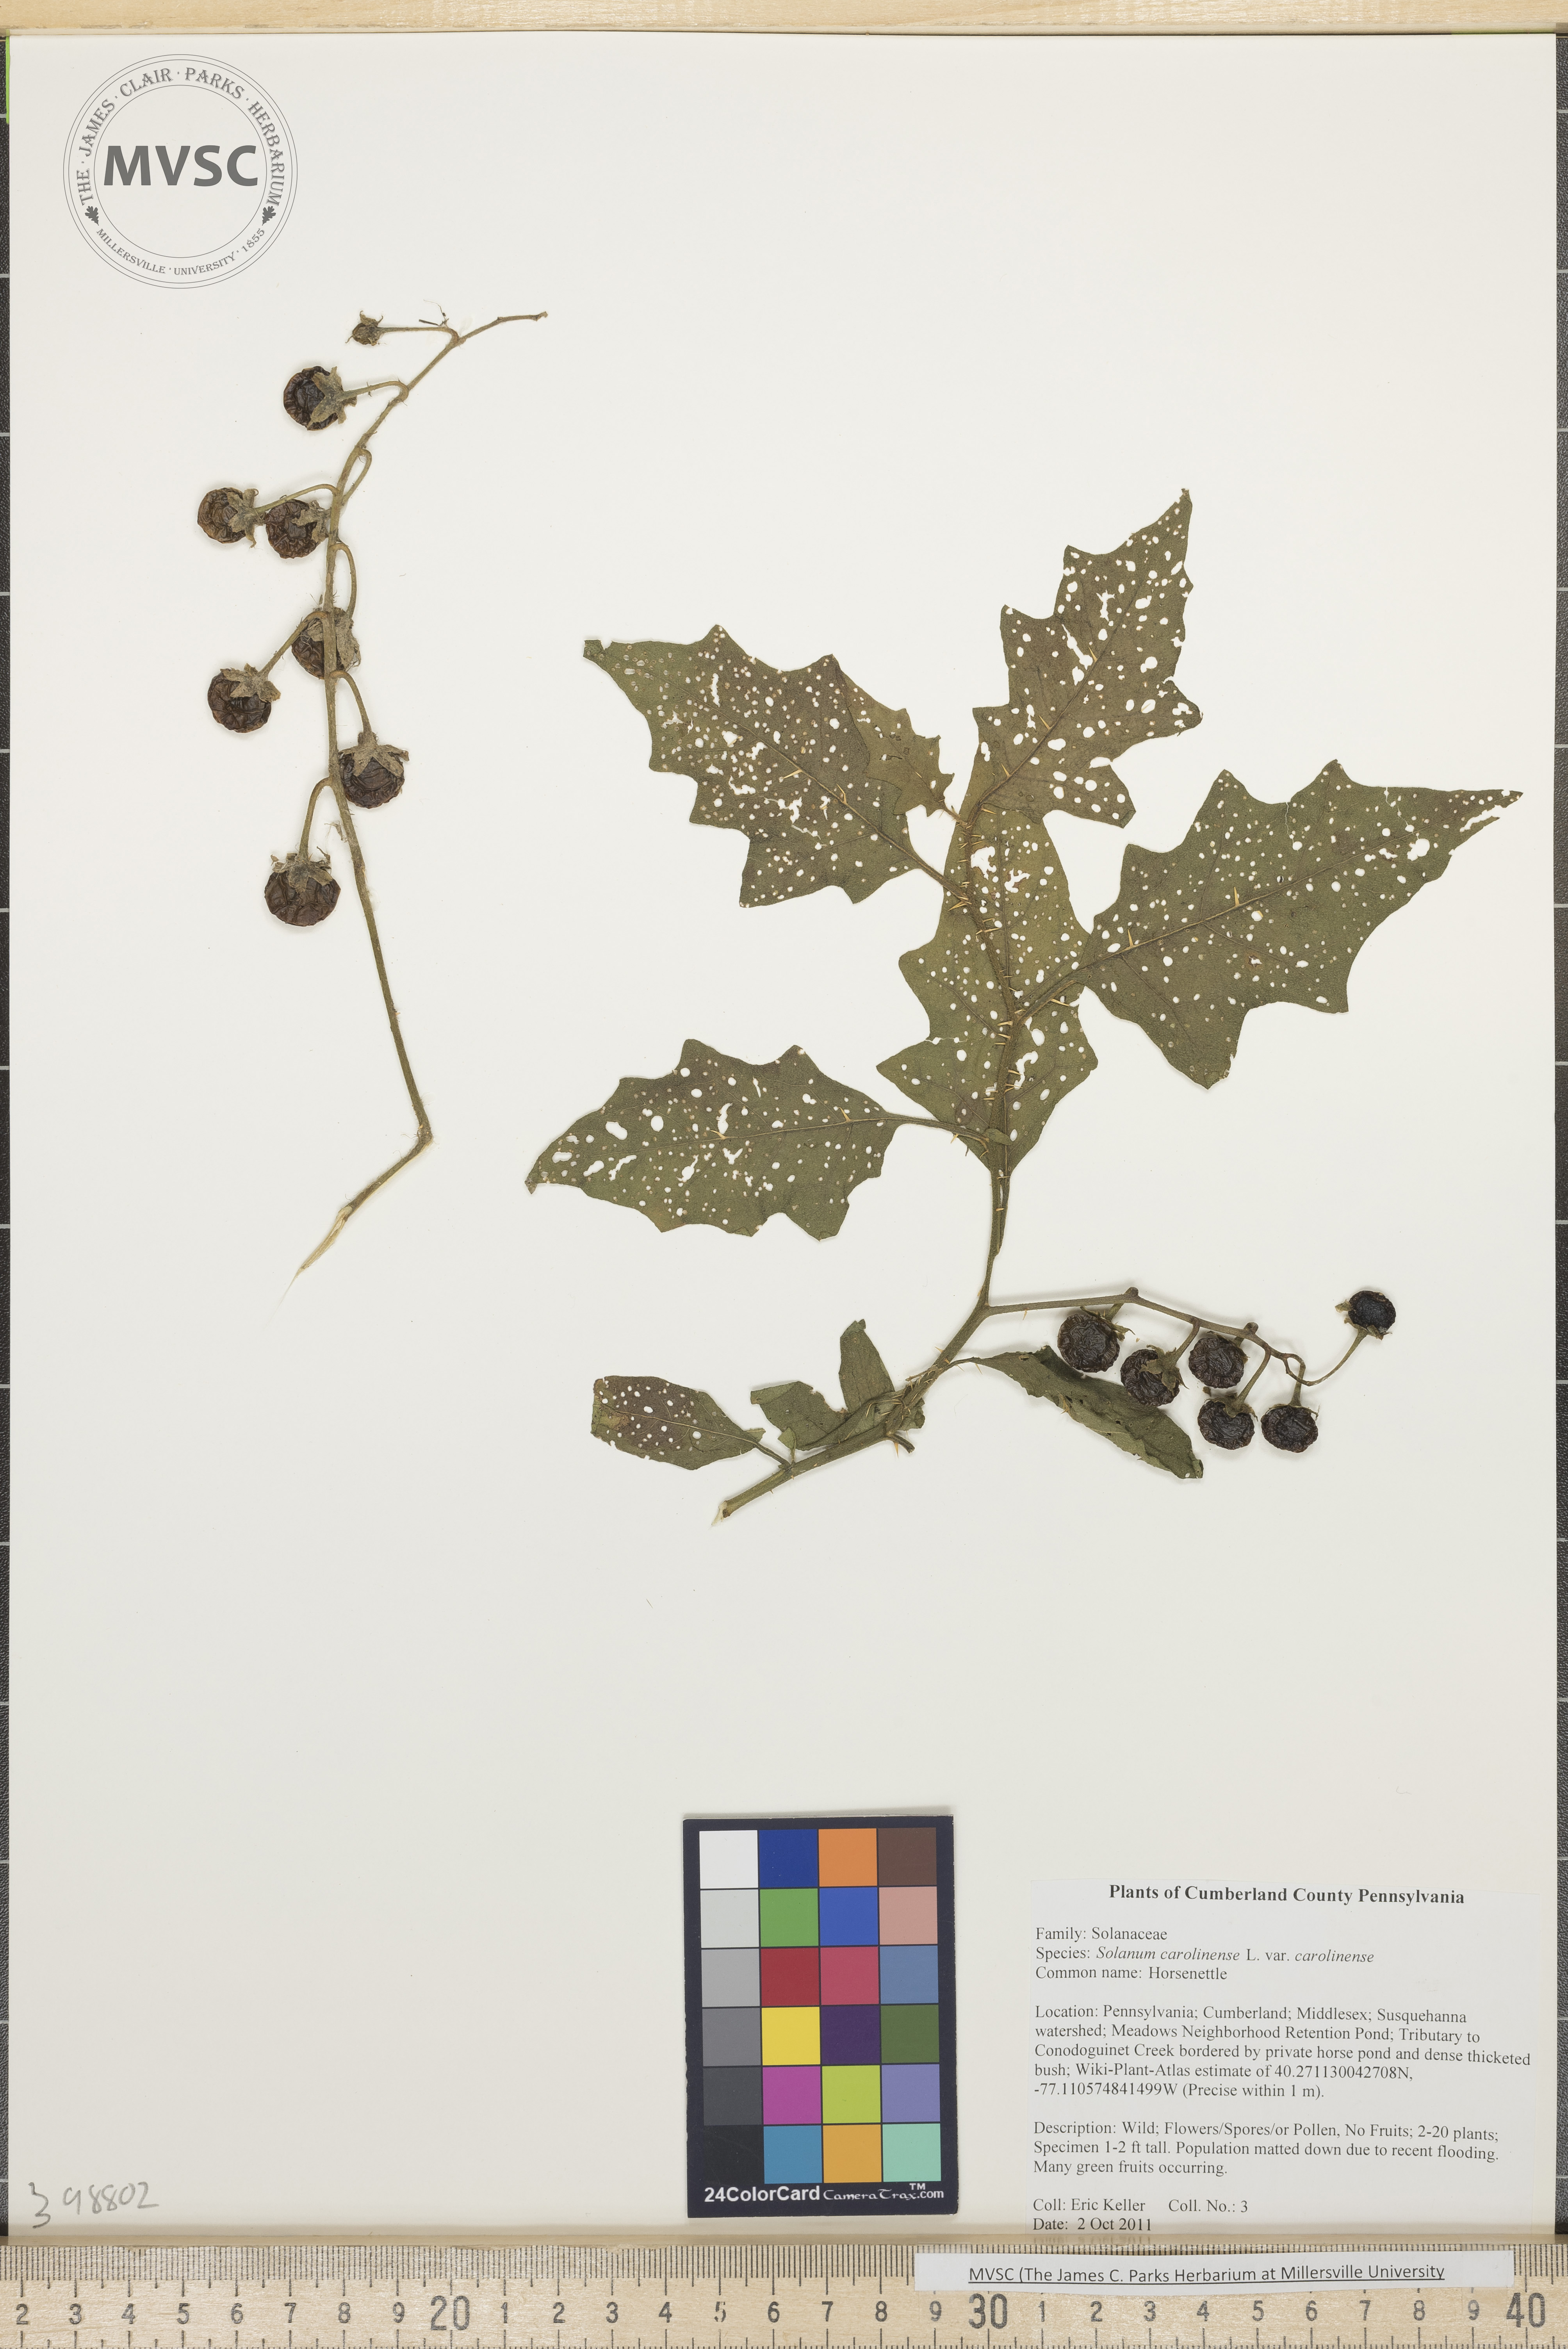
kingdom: Plantae
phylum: Tracheophyta
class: Magnoliopsida
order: Solanales
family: Solanaceae
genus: Solanum
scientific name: Solanum carolinense
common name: Horse-nettle
